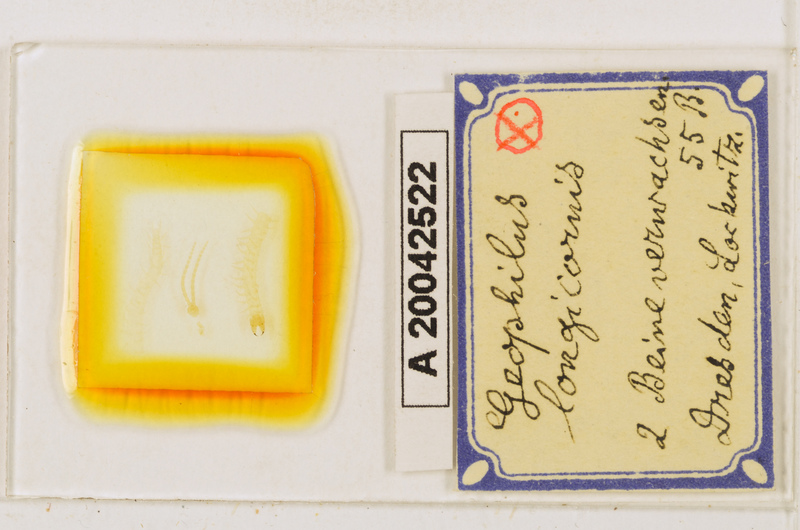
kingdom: Animalia
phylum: Arthropoda
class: Chilopoda
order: Geophilomorpha
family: Geophilidae
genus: Geophilus
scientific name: Geophilus flavus
